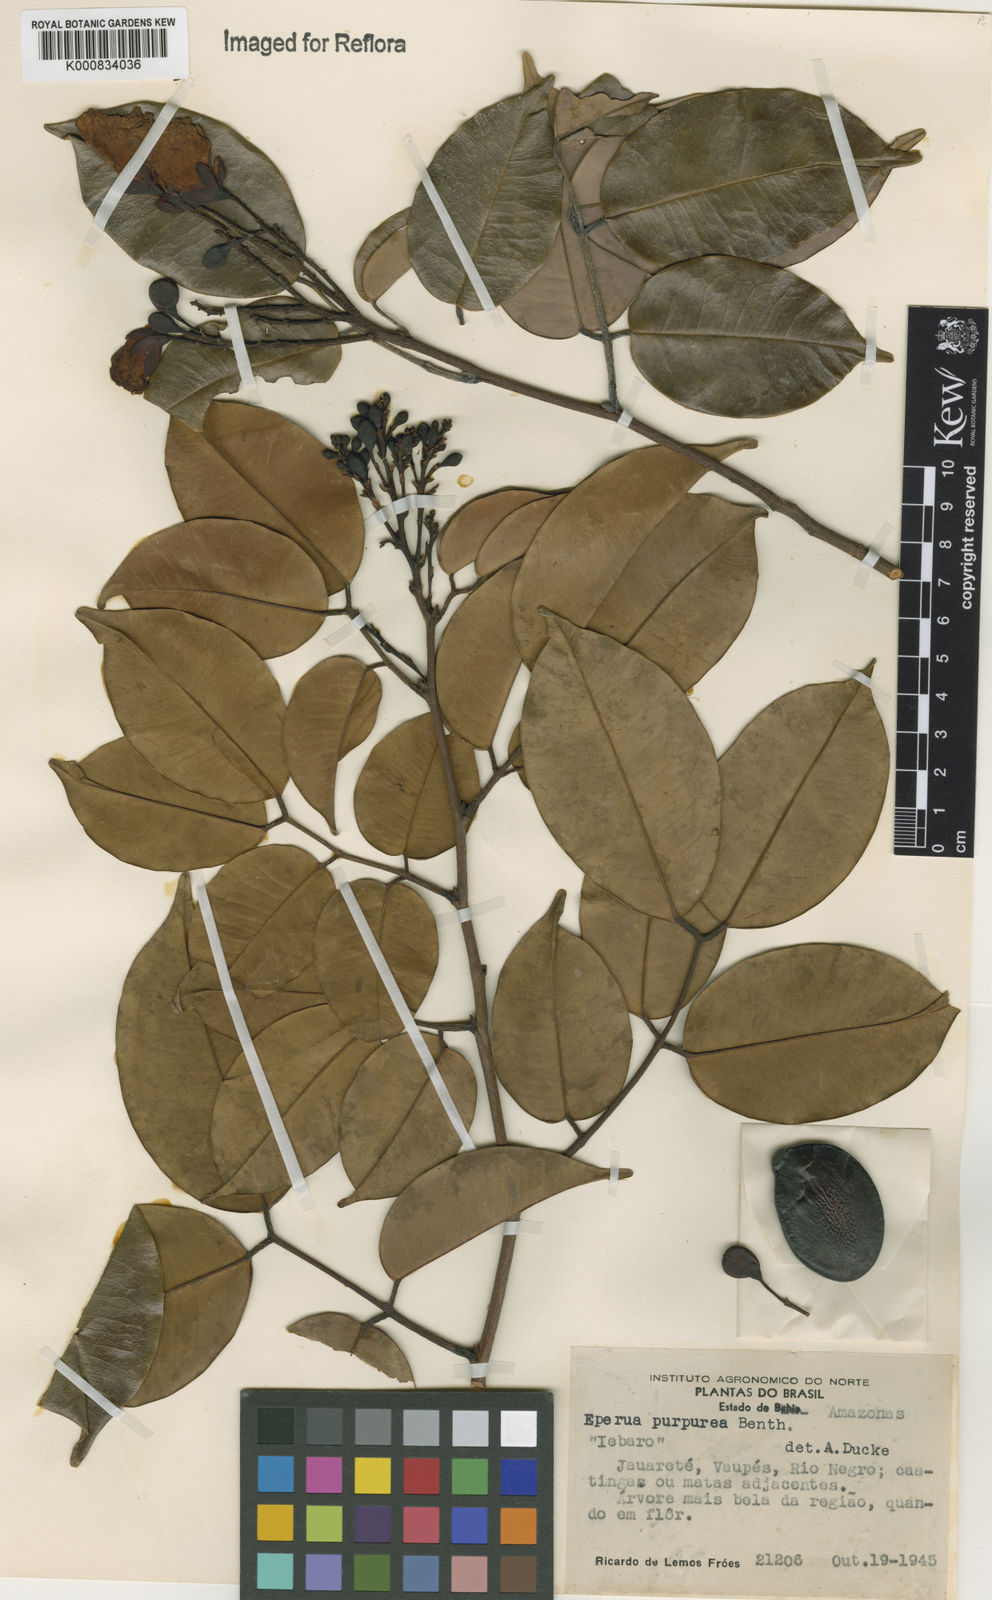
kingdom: Plantae
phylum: Tracheophyta
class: Magnoliopsida
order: Fabales
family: Fabaceae
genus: Eperua
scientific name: Eperua purpurea
